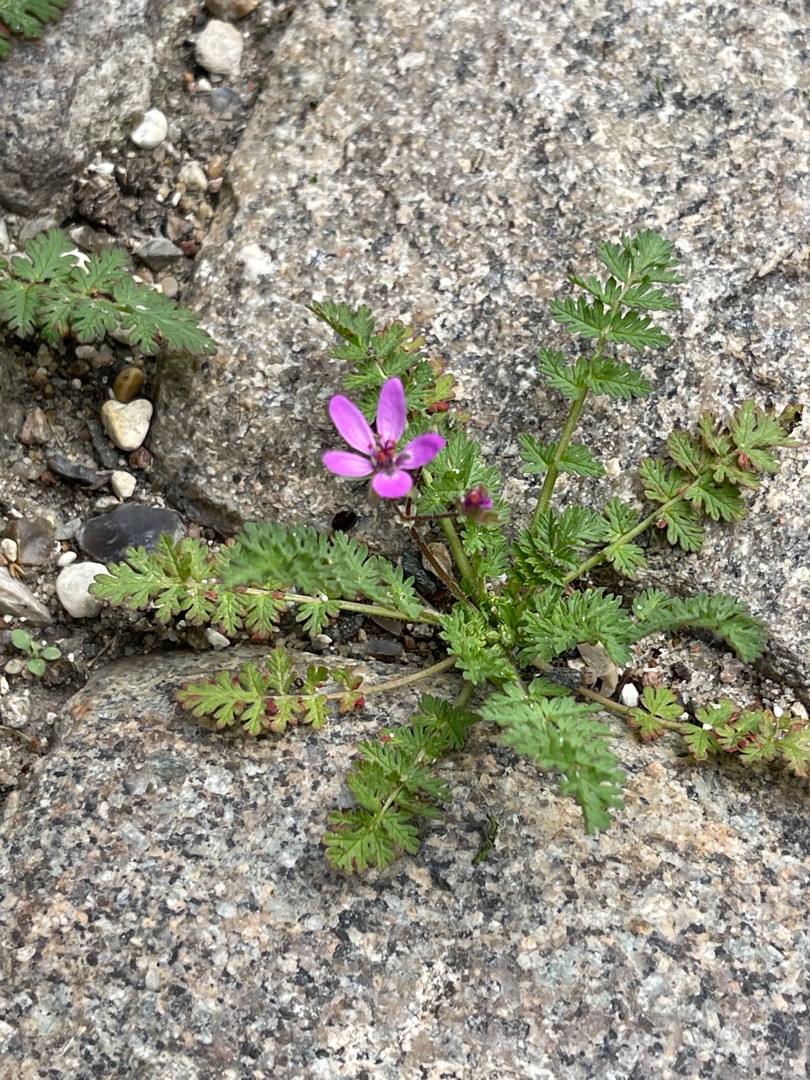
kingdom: Plantae
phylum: Tracheophyta
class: Magnoliopsida
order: Geraniales
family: Geraniaceae
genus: Erodium
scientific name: Erodium cicutarium
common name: Hejrenæb
